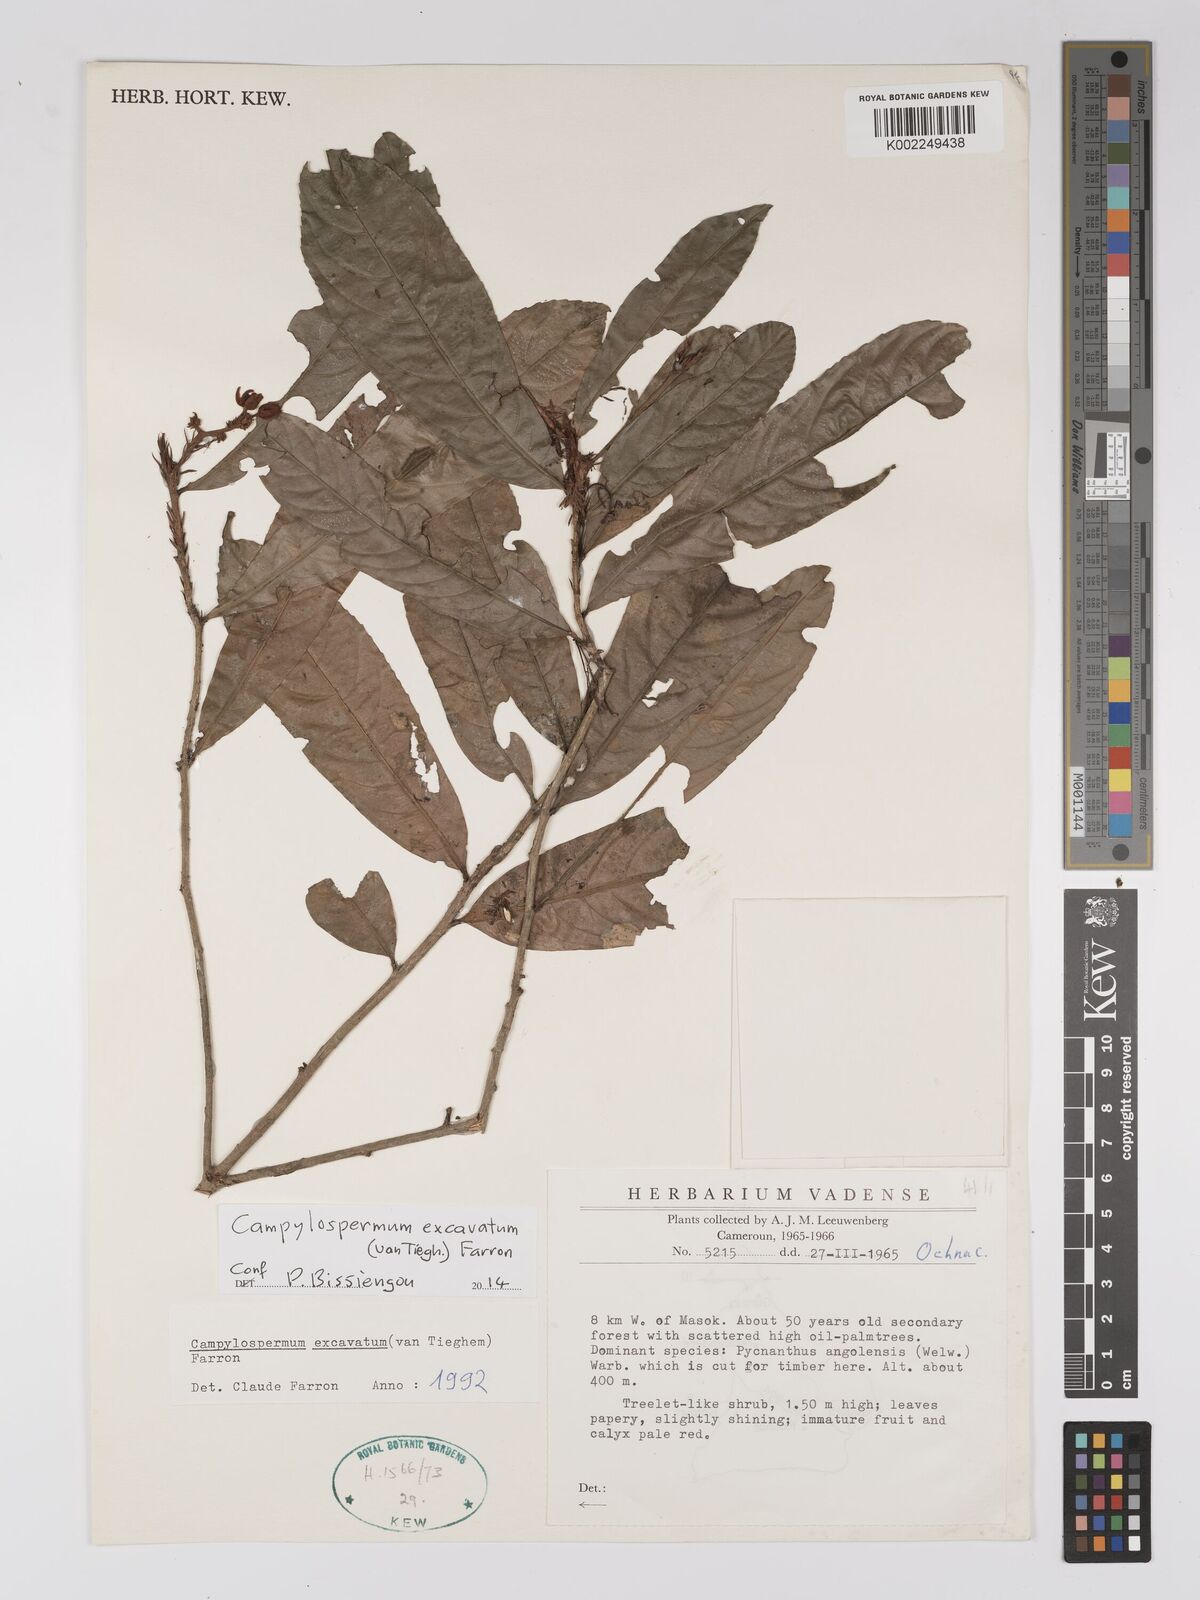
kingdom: Plantae
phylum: Tracheophyta
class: Magnoliopsida
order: Malpighiales
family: Ochnaceae
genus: Campylospermum
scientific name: Campylospermum excavatum
